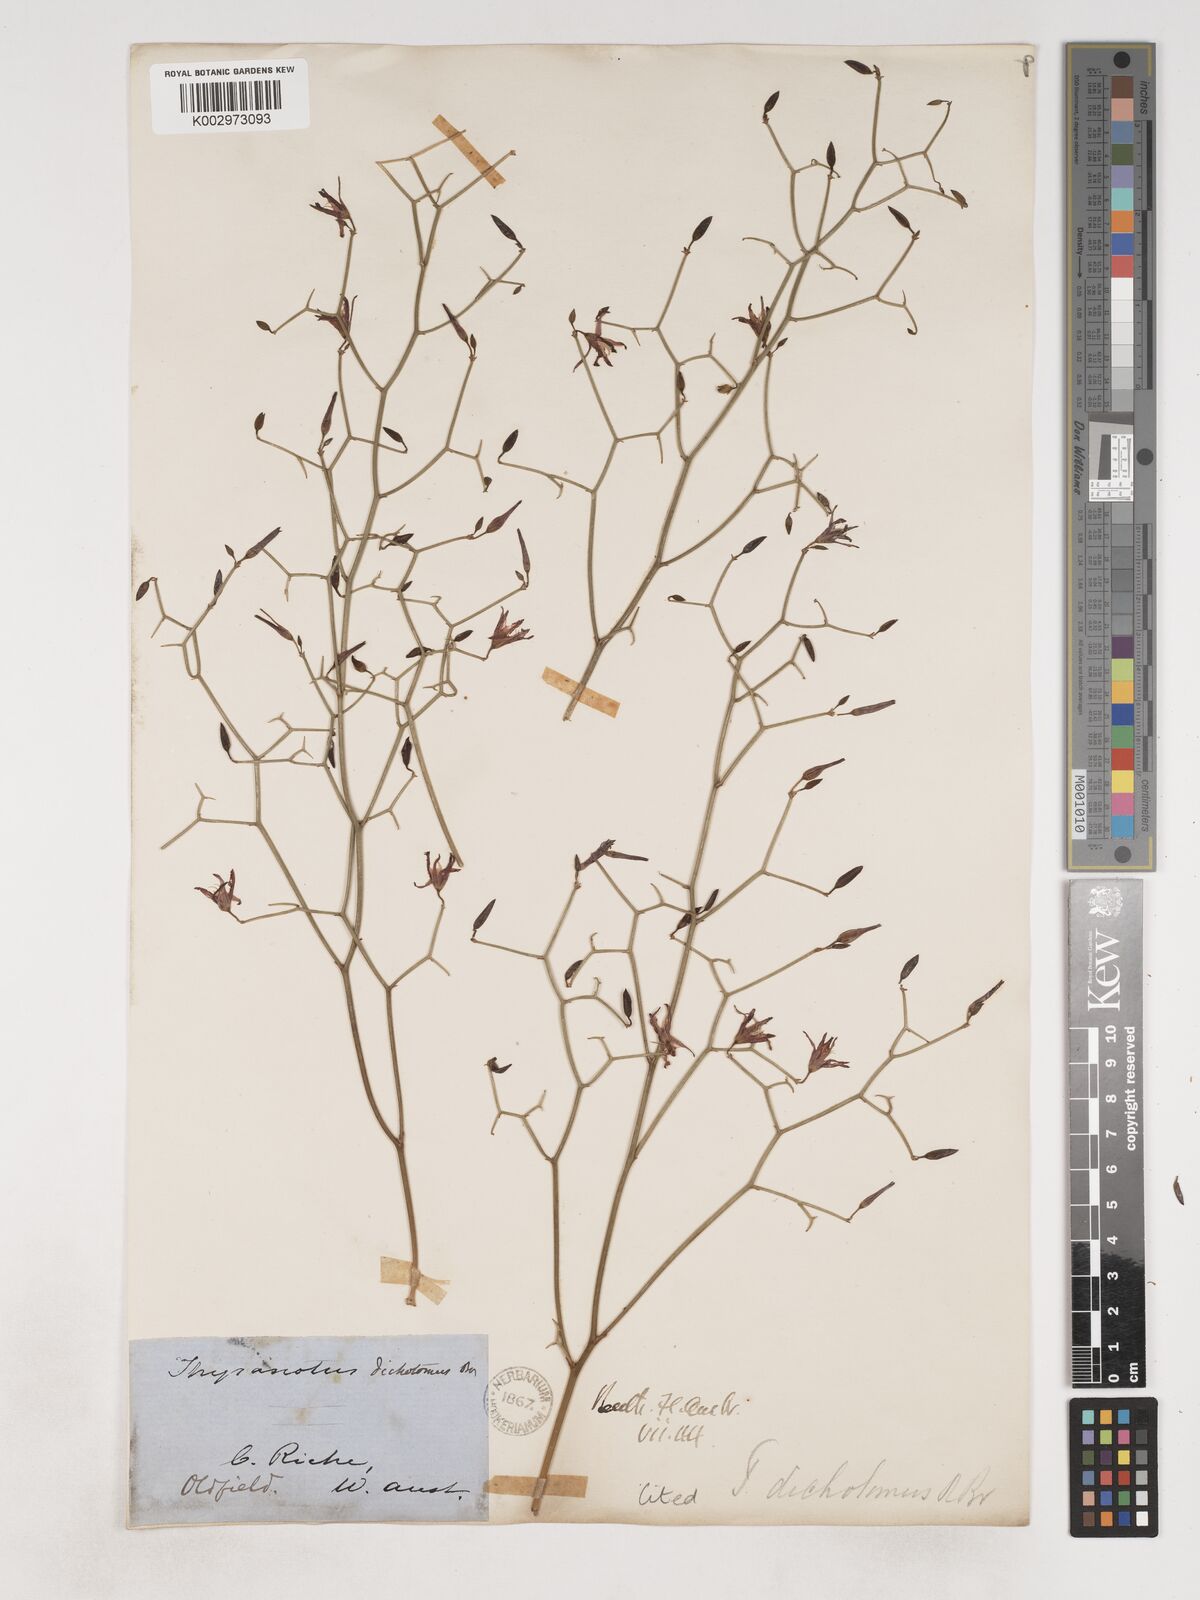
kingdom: Plantae
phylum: Tracheophyta
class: Liliopsida
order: Asparagales
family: Asparagaceae
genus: Thysanotus
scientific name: Thysanotus dichotomus
